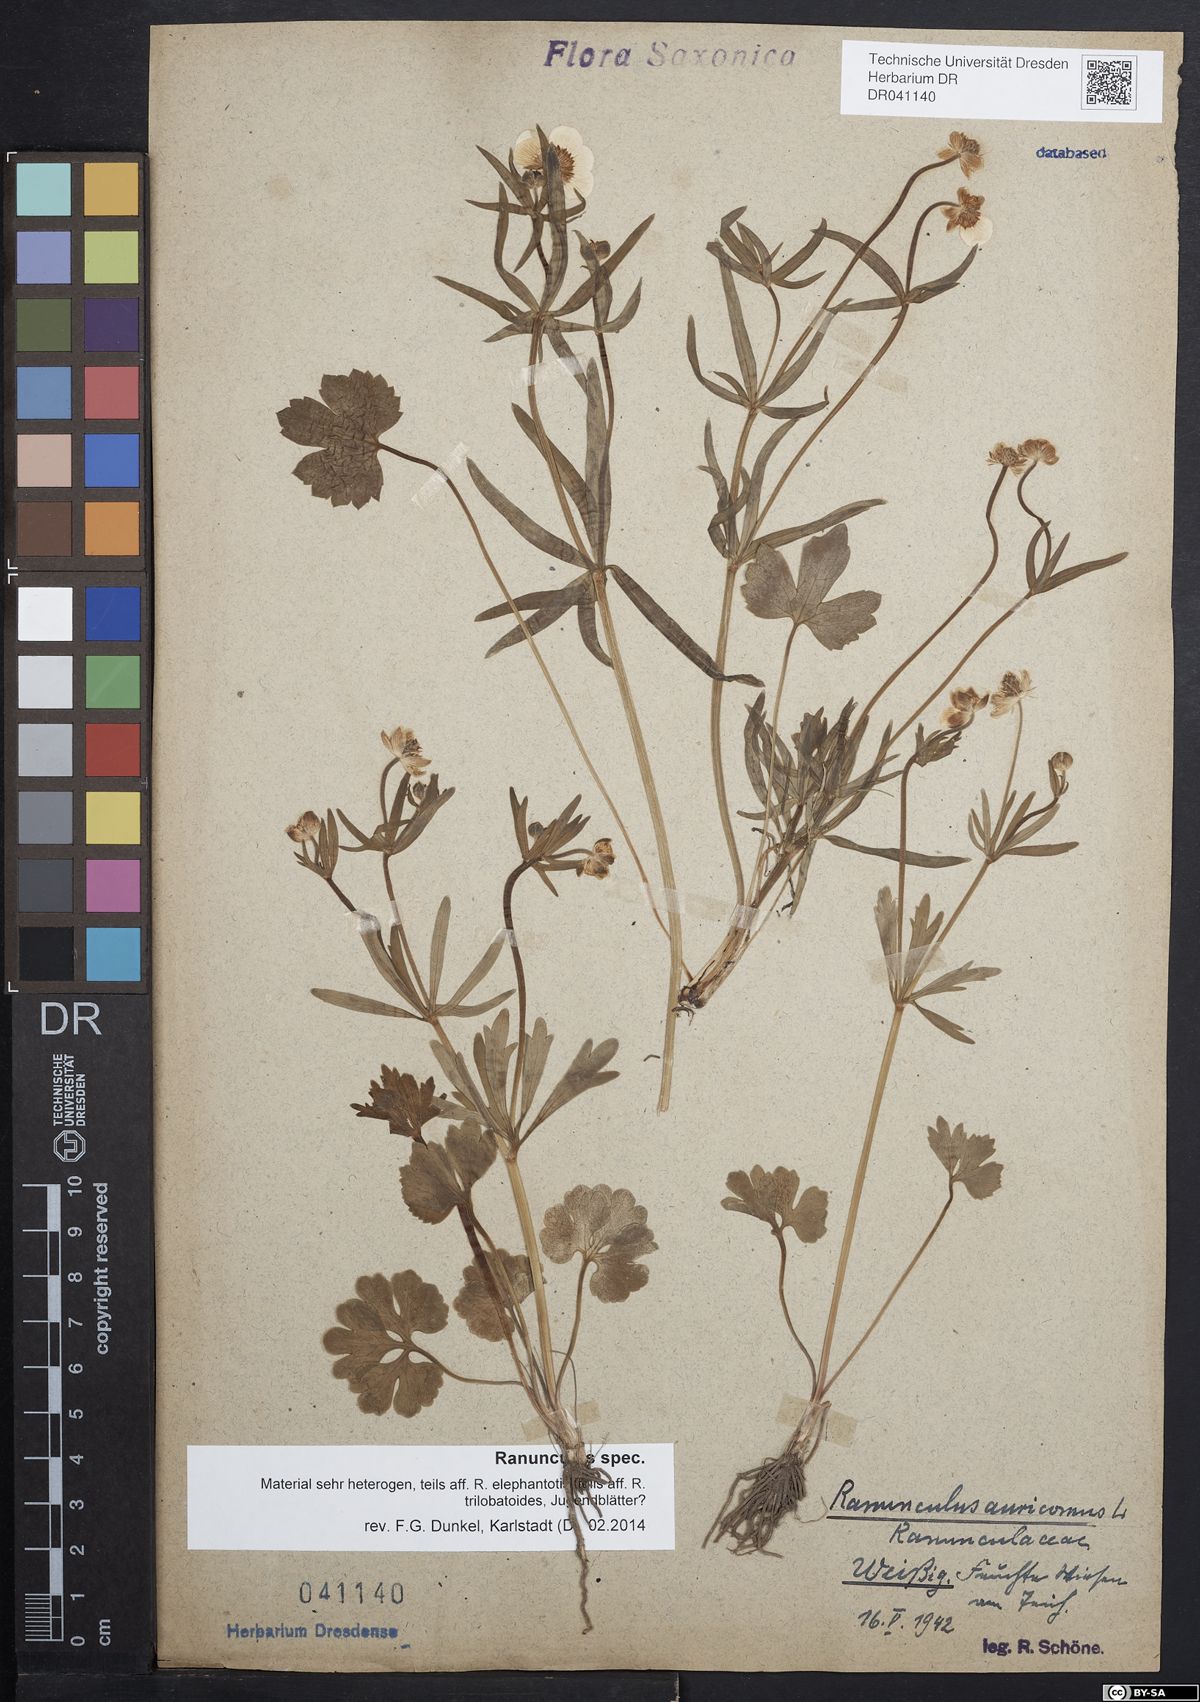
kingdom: Plantae
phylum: Tracheophyta
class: Magnoliopsida
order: Ranunculales
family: Ranunculaceae
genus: Ranunculus
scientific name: Ranunculus auricomus
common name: Goldilocks buttercup
